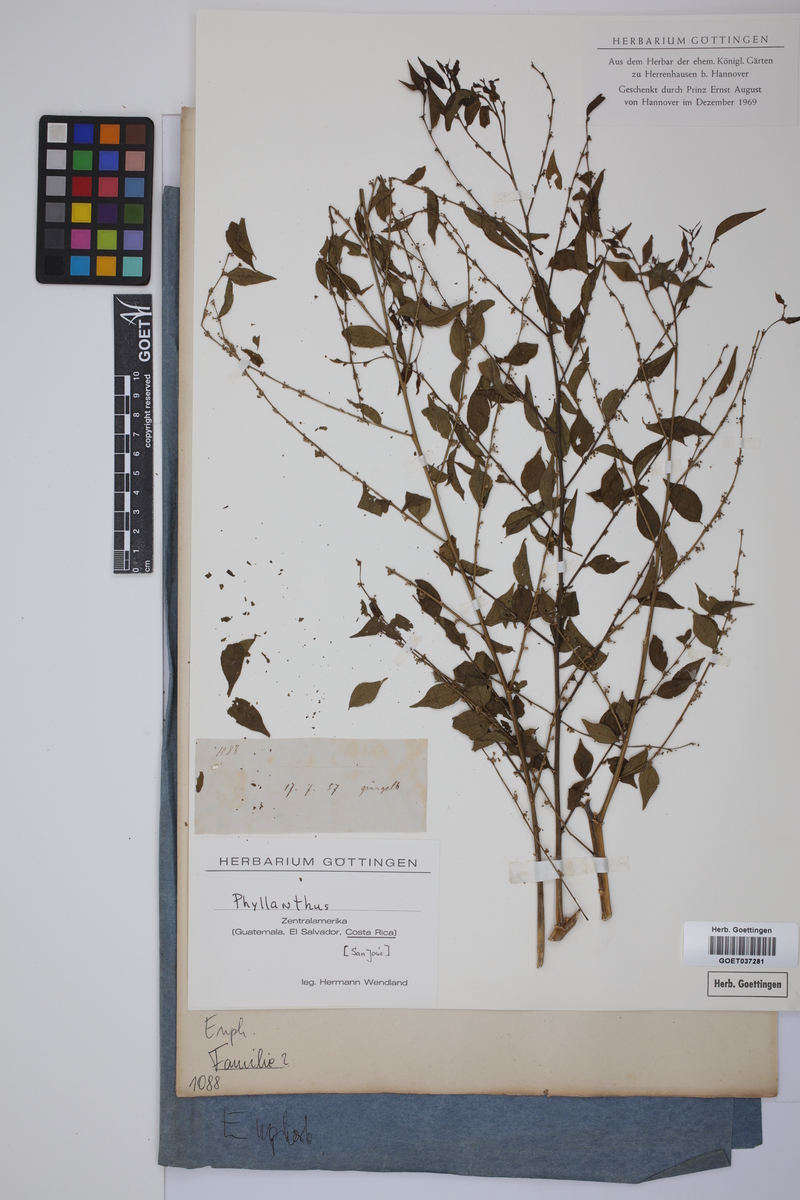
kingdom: Plantae
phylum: Tracheophyta
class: Magnoliopsida
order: Malpighiales
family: Phyllanthaceae
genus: Phyllanthus
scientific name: Phyllanthus
